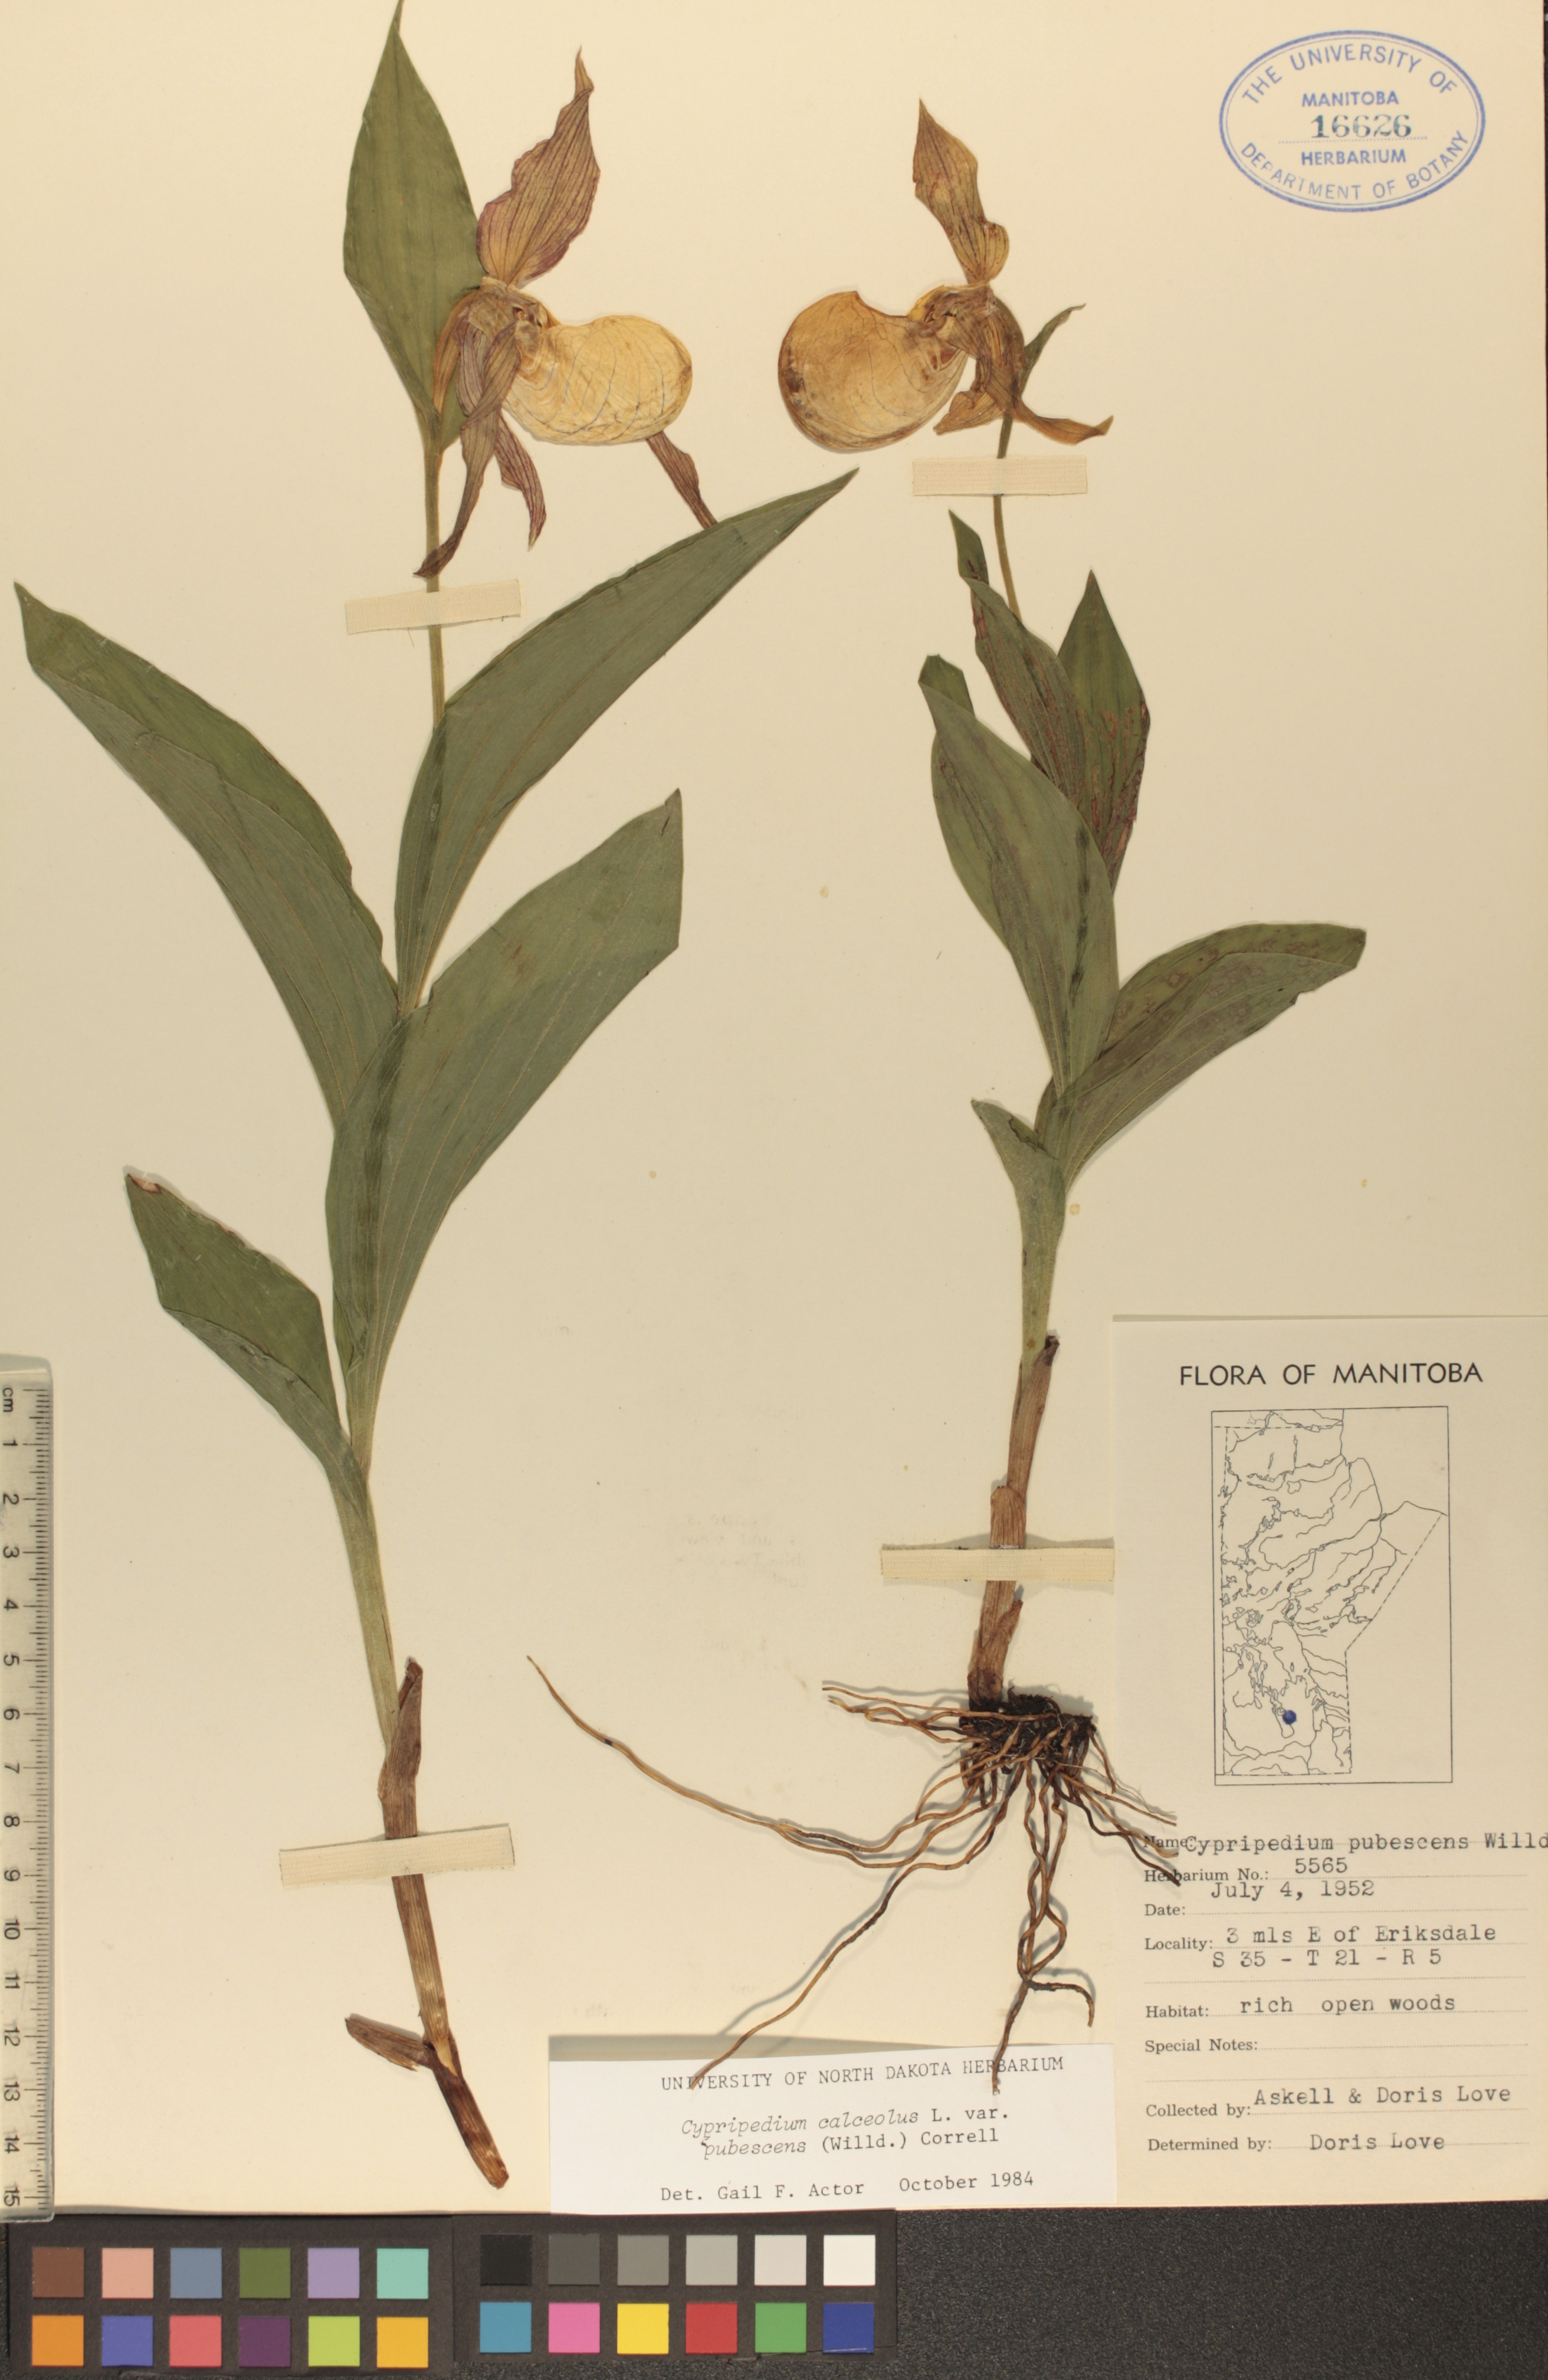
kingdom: Plantae
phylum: Tracheophyta
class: Liliopsida
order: Asparagales
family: Orchidaceae
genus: Cypripedium
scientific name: Cypripedium parviflorum
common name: American yellow lady's-slipper
